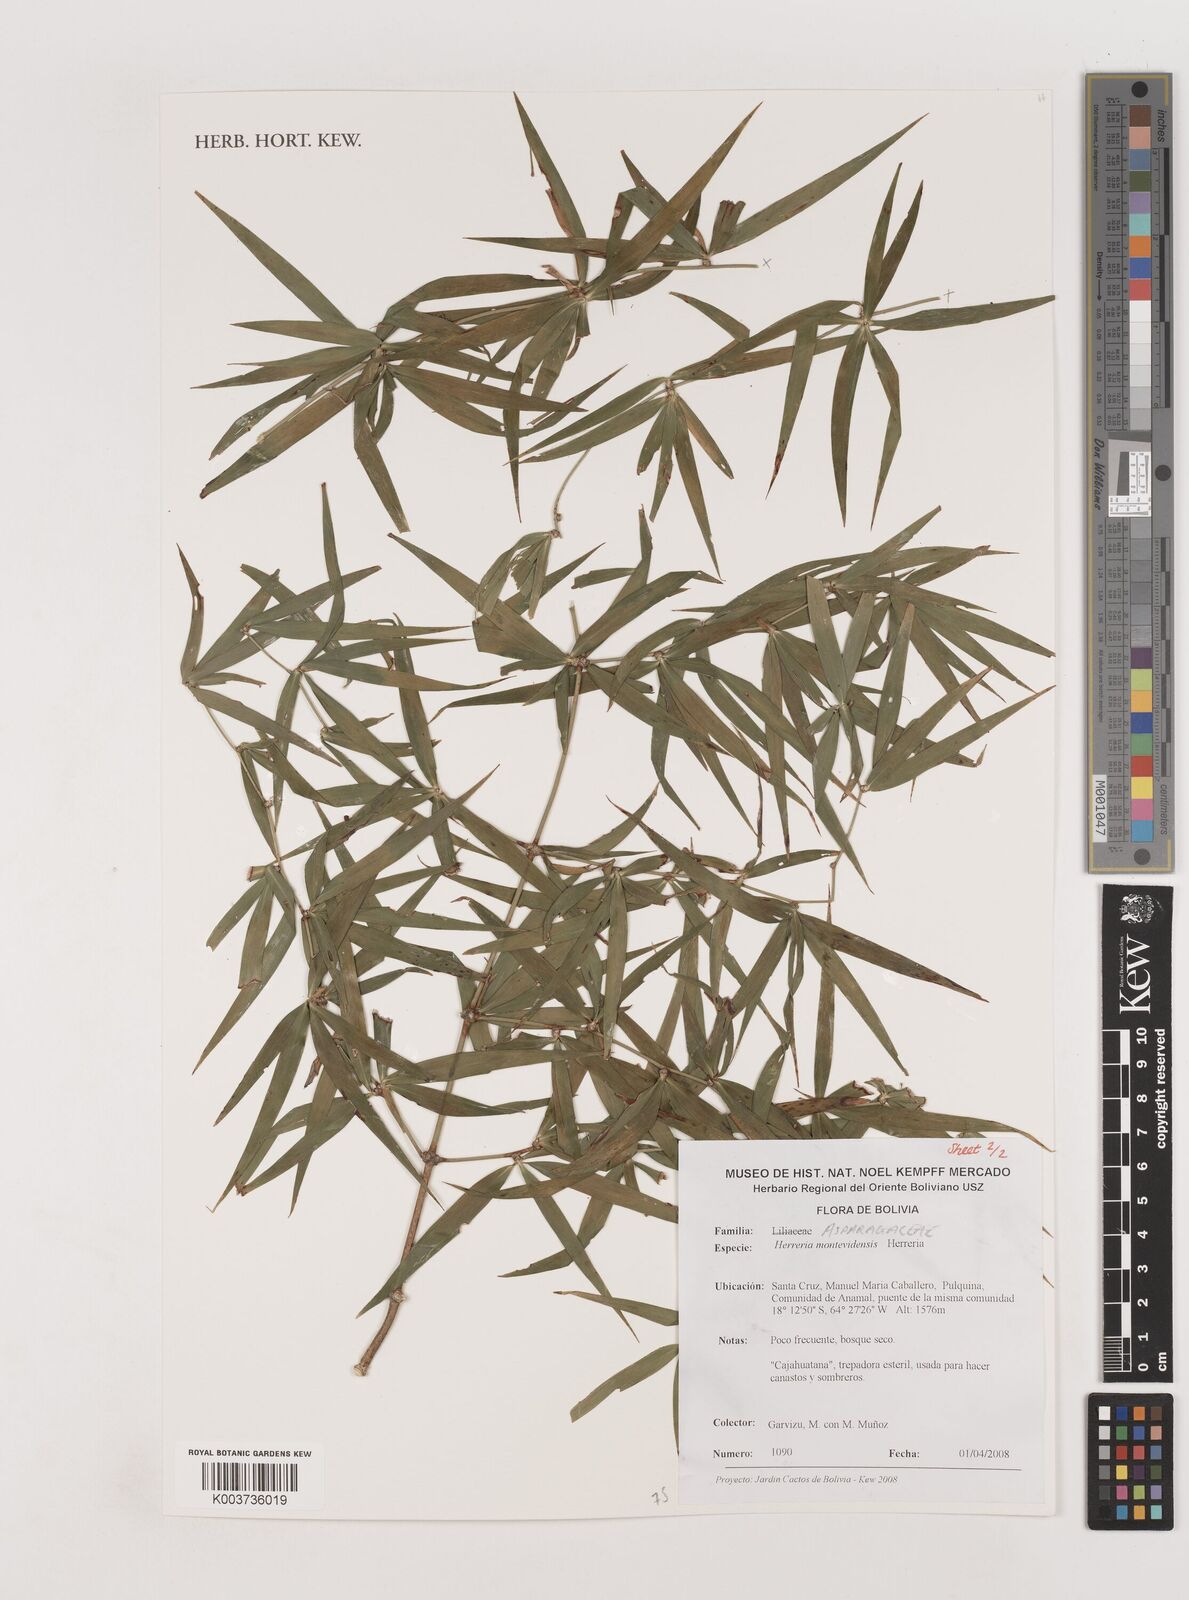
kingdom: Plantae
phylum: Tracheophyta
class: Liliopsida
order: Asparagales
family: Asparagaceae
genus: Herreria
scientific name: Herreria montevidensis
